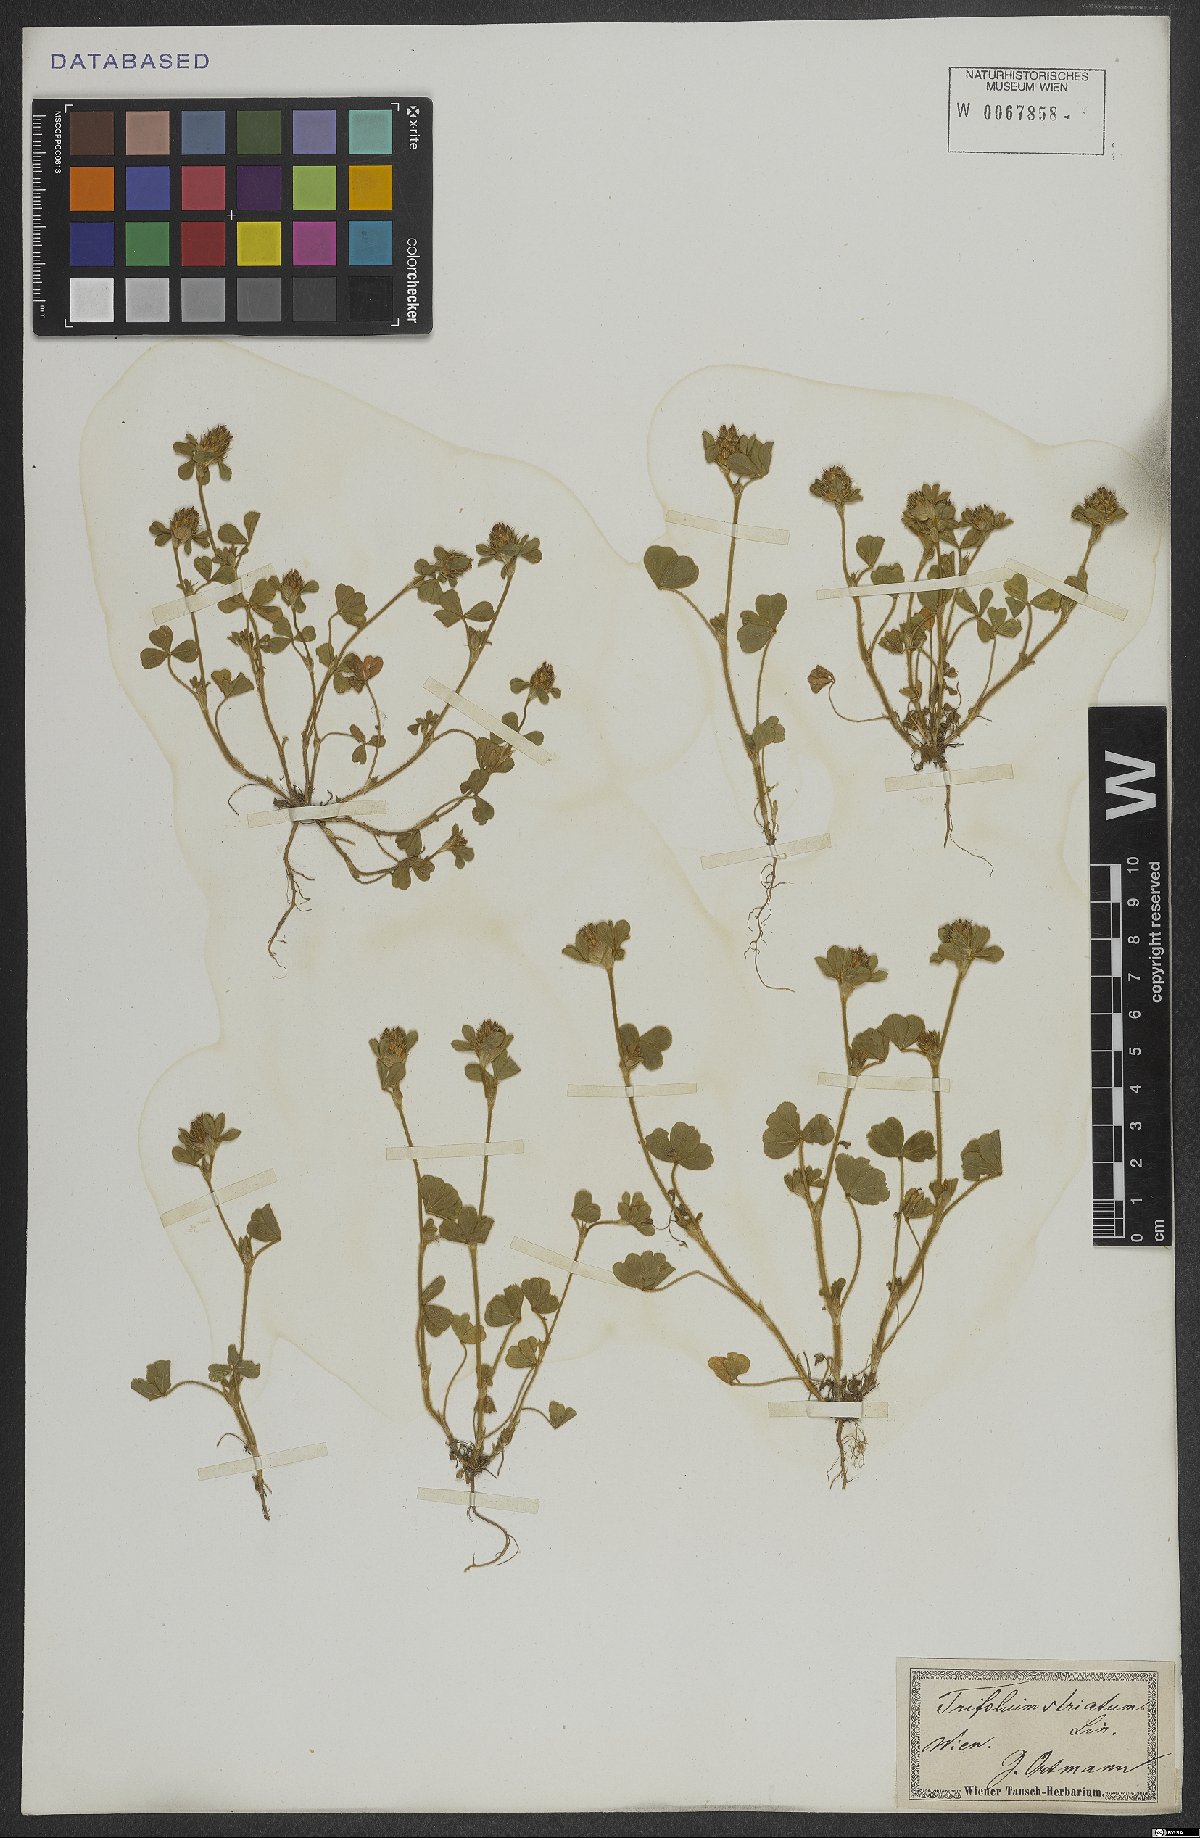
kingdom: Plantae
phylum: Tracheophyta
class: Magnoliopsida
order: Fabales
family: Fabaceae
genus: Trifolium
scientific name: Trifolium striatum
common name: Knotted clover
